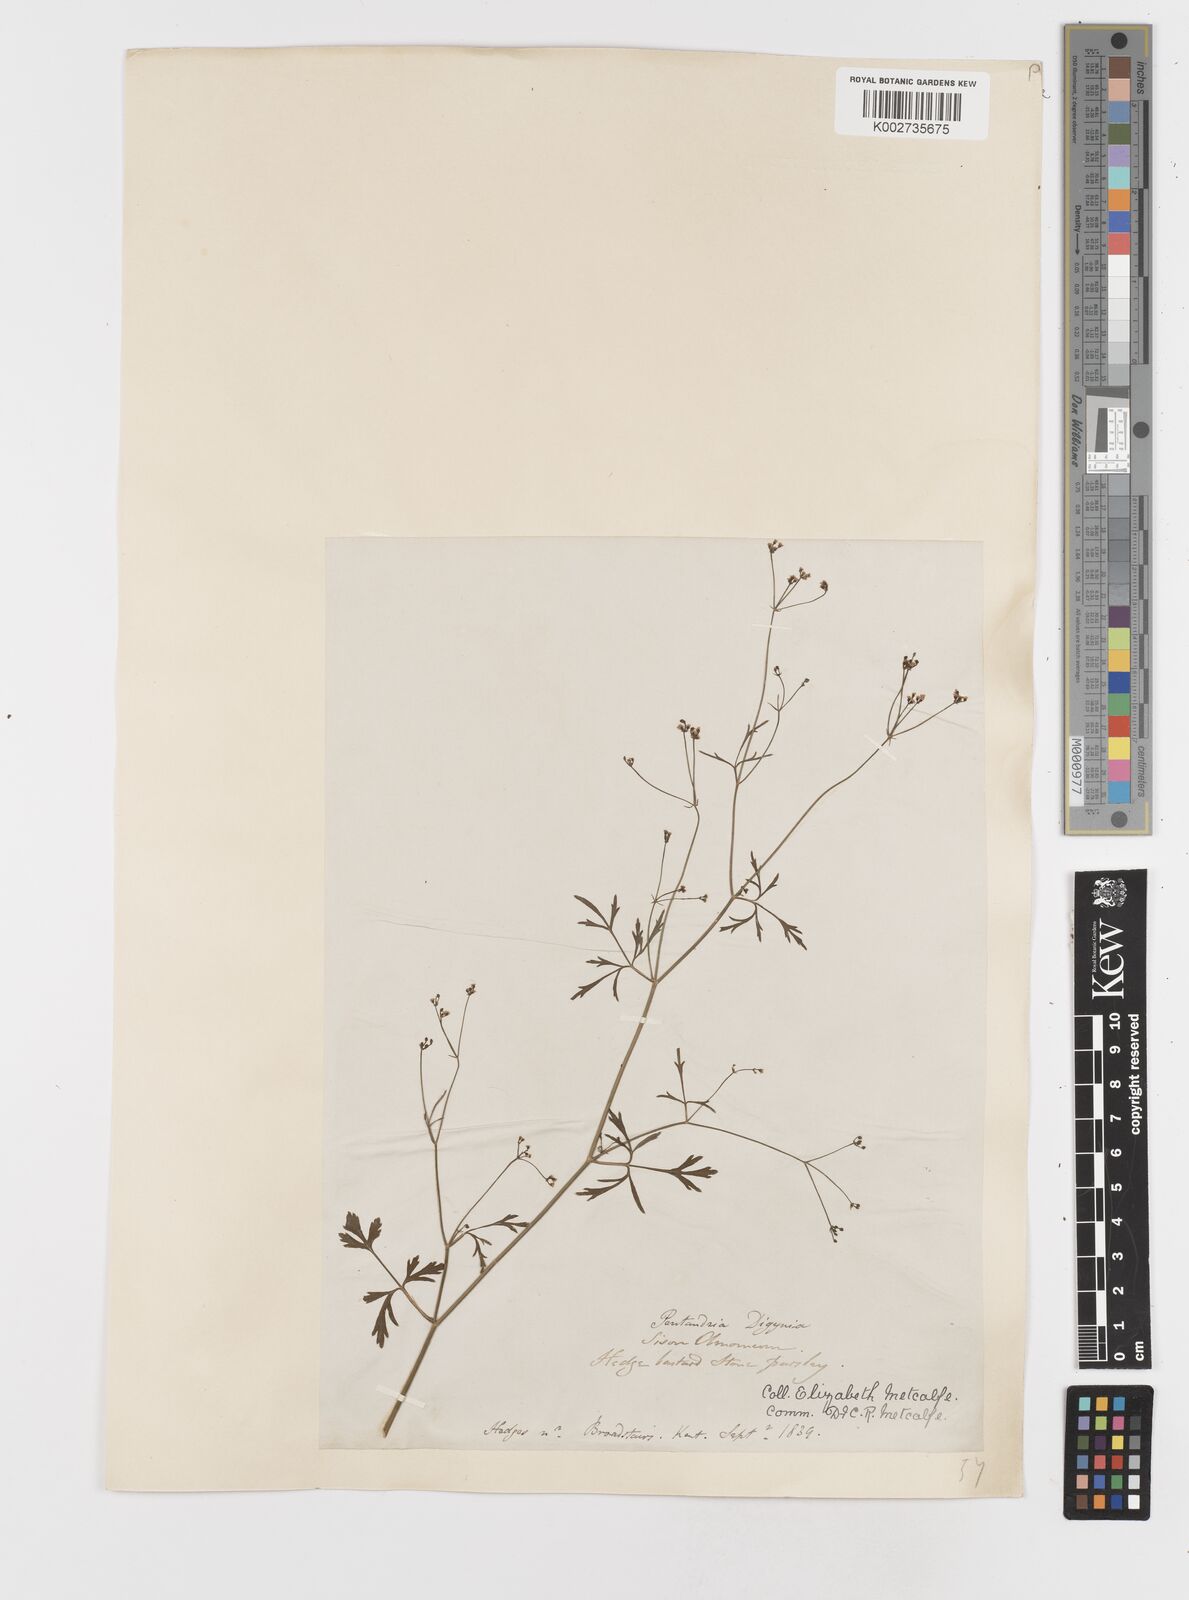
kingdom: Plantae
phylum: Tracheophyta
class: Magnoliopsida
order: Apiales
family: Apiaceae
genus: Sison
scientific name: Sison amomum
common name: Stone-parsley
